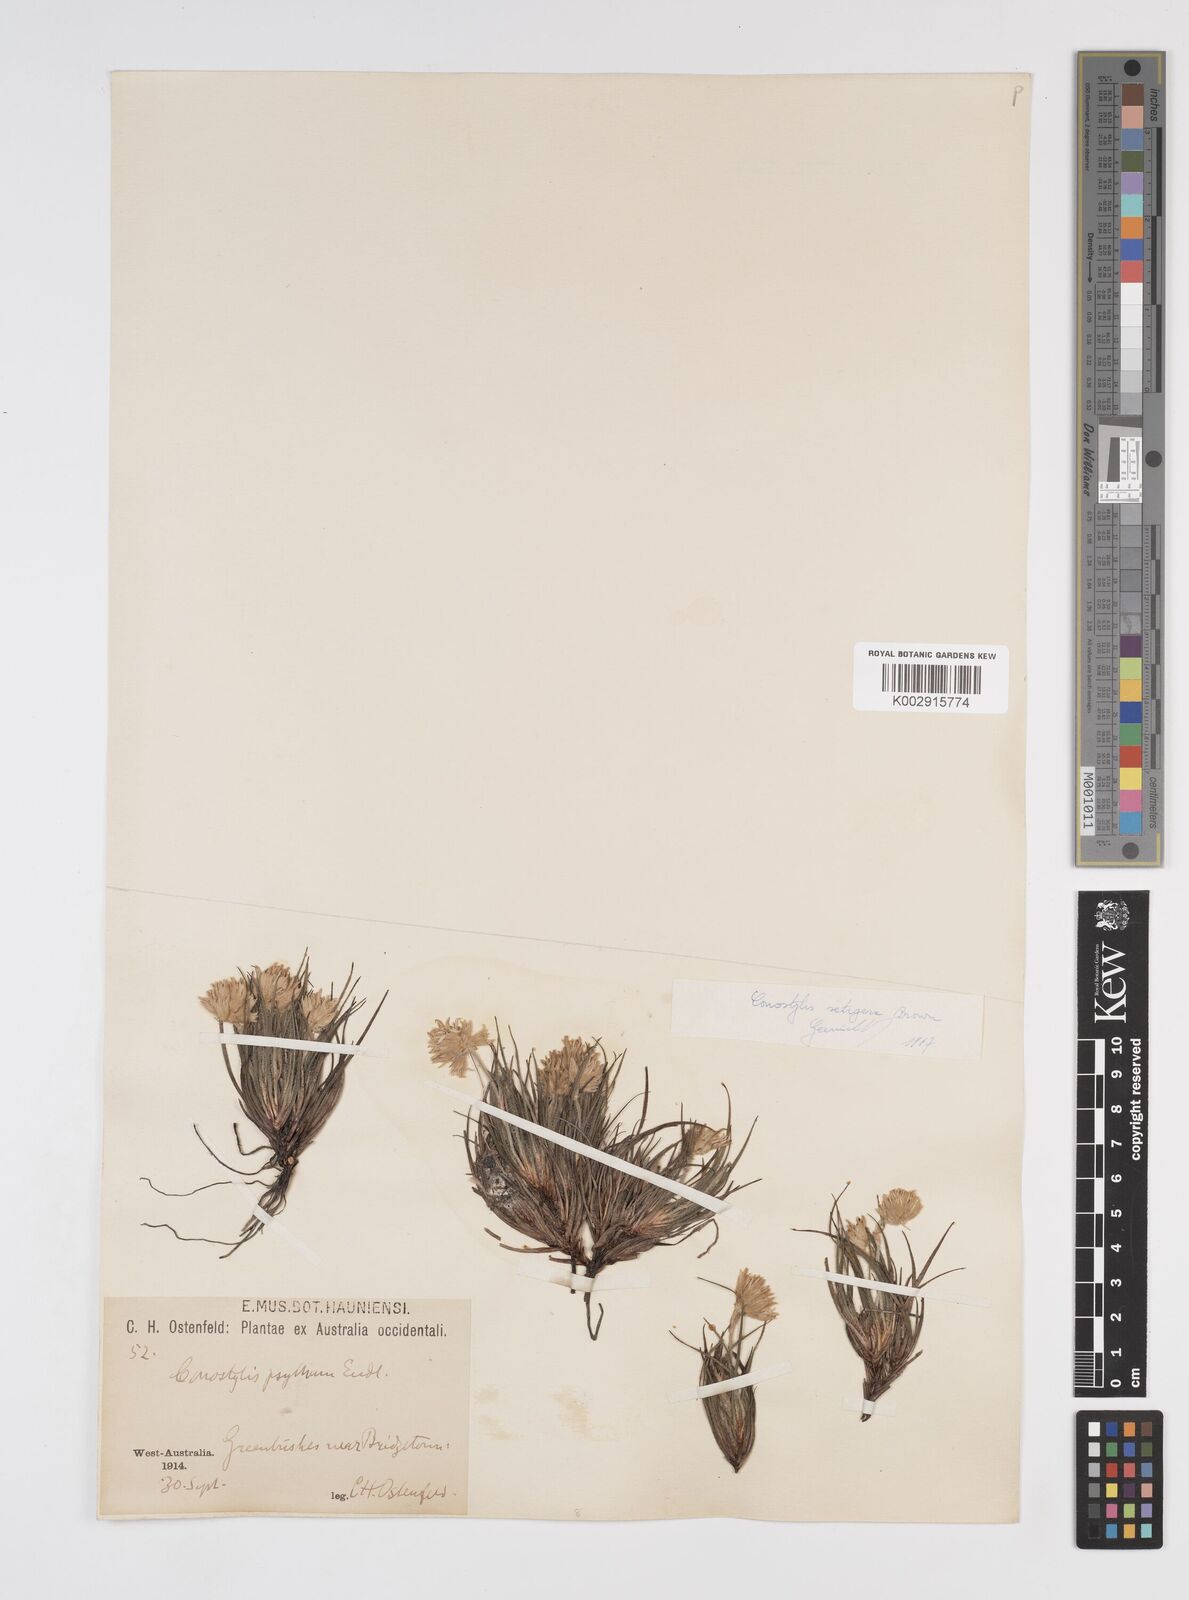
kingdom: Plantae
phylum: Tracheophyta
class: Liliopsida
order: Commelinales
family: Haemodoraceae
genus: Conostylis
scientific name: Conostylis setigera
